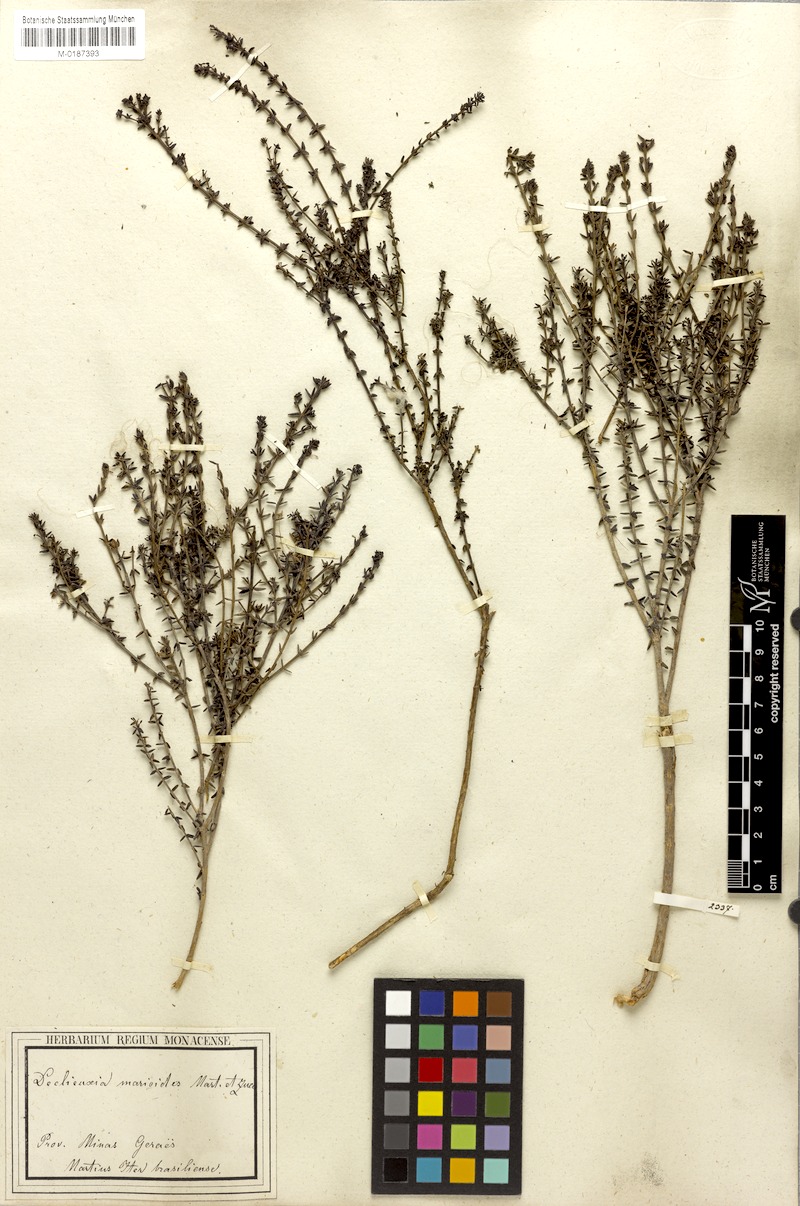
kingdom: Plantae
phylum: Tracheophyta
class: Magnoliopsida
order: Gentianales
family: Rubiaceae
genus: Declieuxia
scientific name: Declieuxia marioides
